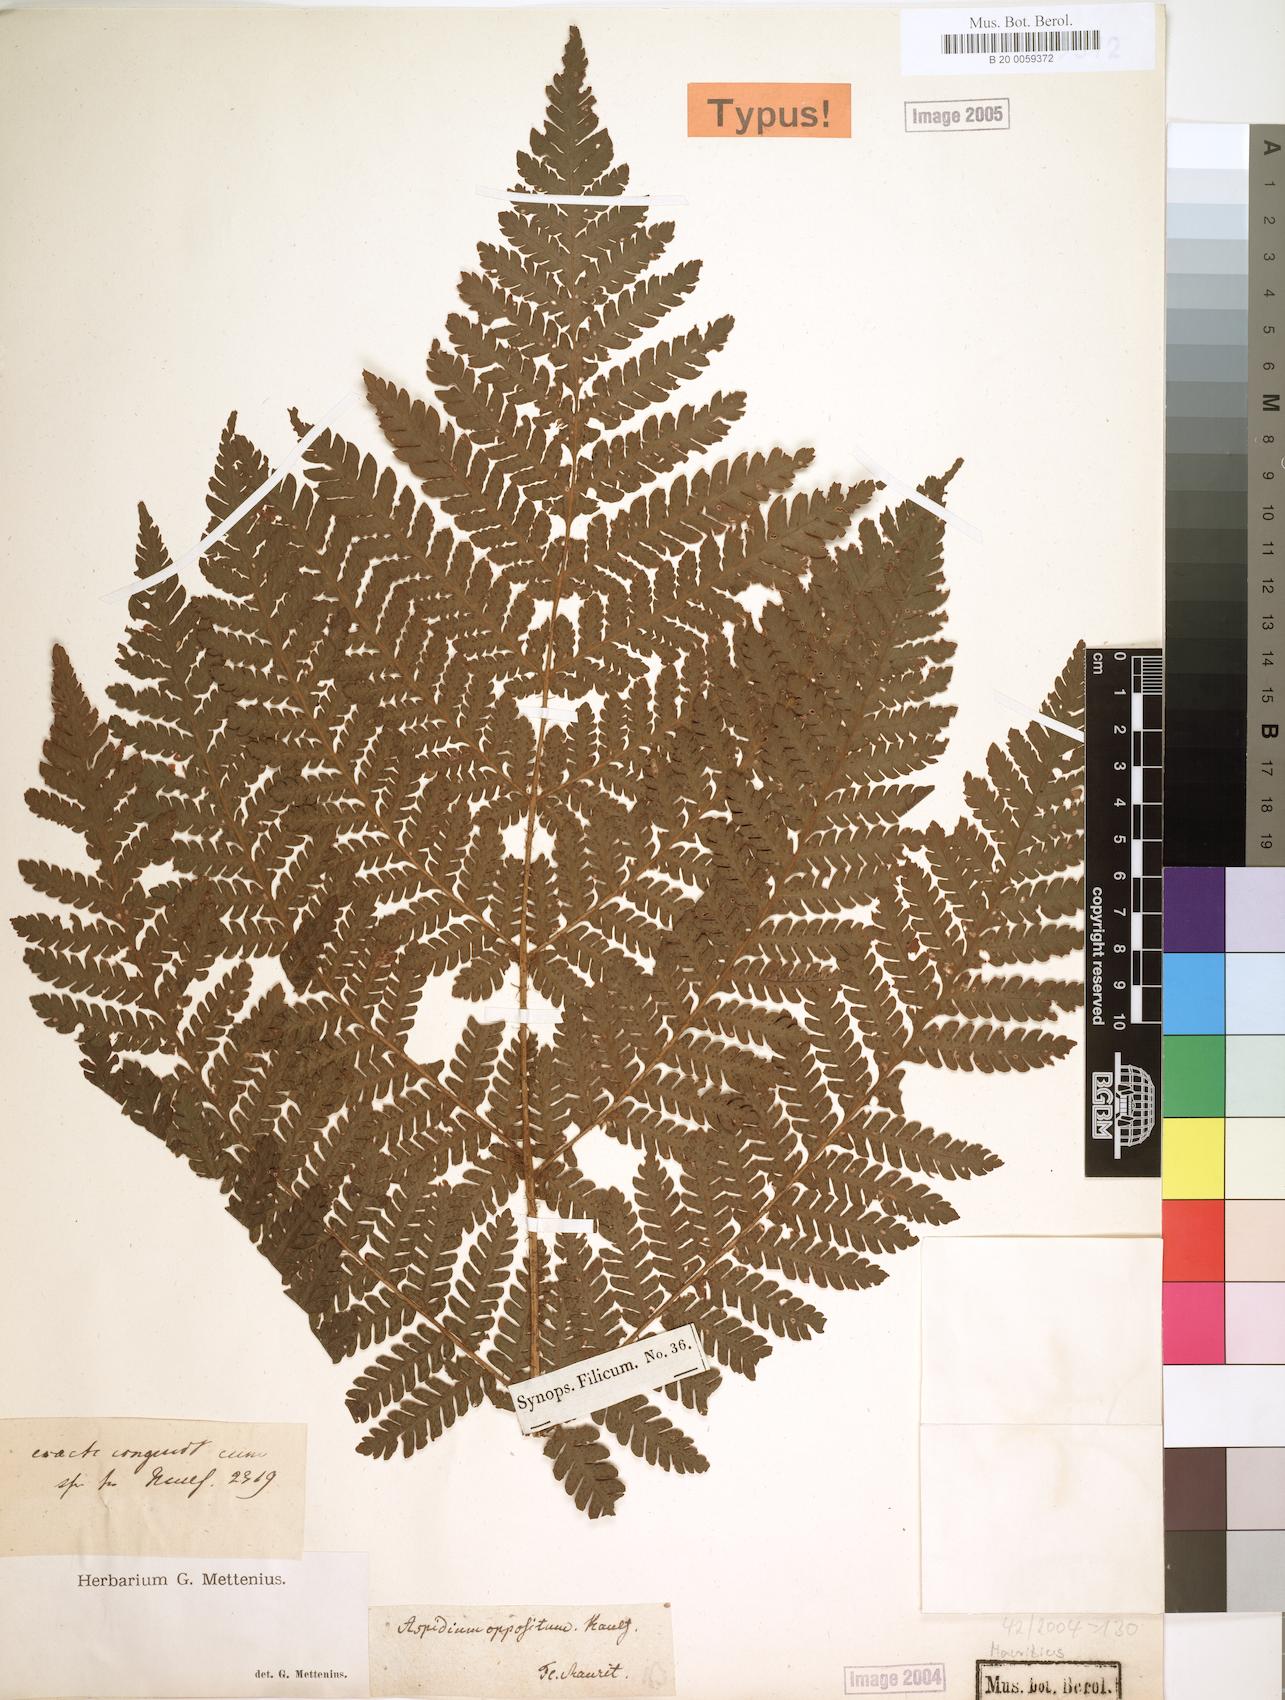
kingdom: Plantae
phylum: Tracheophyta
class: Polypodiopsida
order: Polypodiales
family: Dryopteridaceae
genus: Megalastrum
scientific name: Megalastrum oppositum
